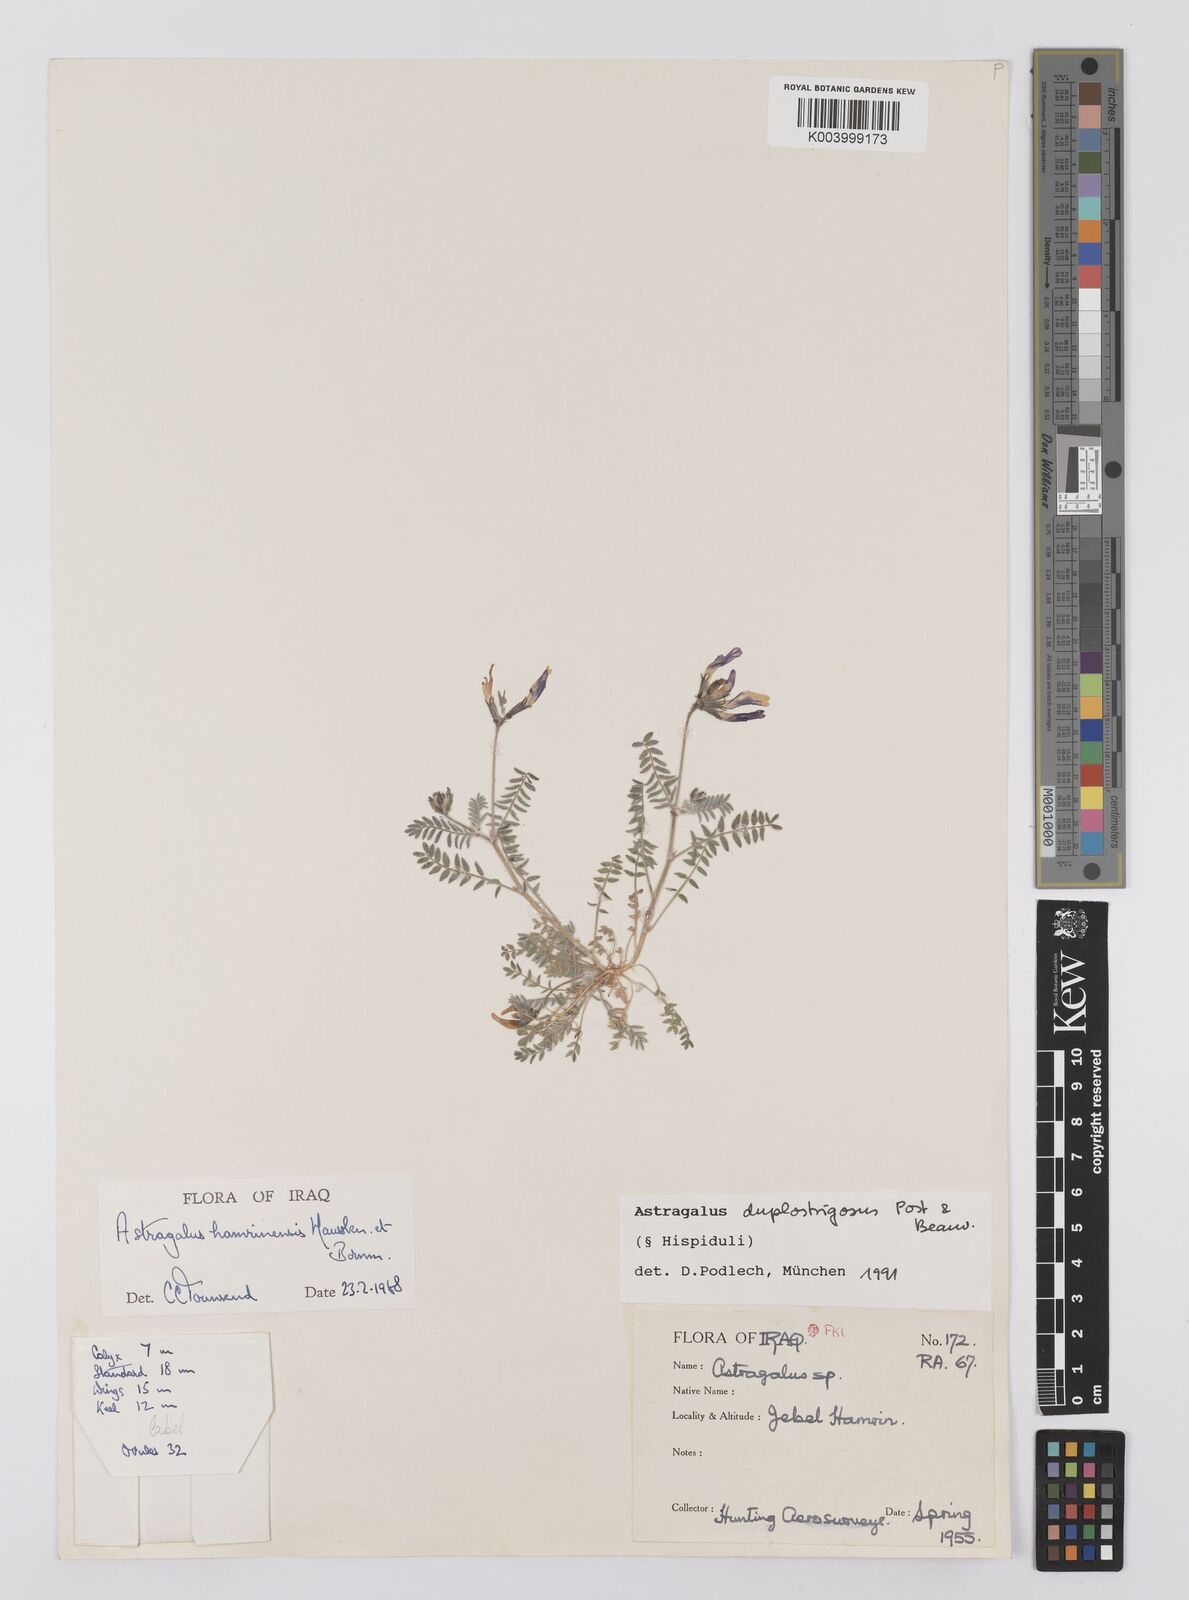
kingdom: Plantae
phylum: Tracheophyta
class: Magnoliopsida
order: Fabales
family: Fabaceae
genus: Astragalus
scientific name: Astragalus duplostrigosus
